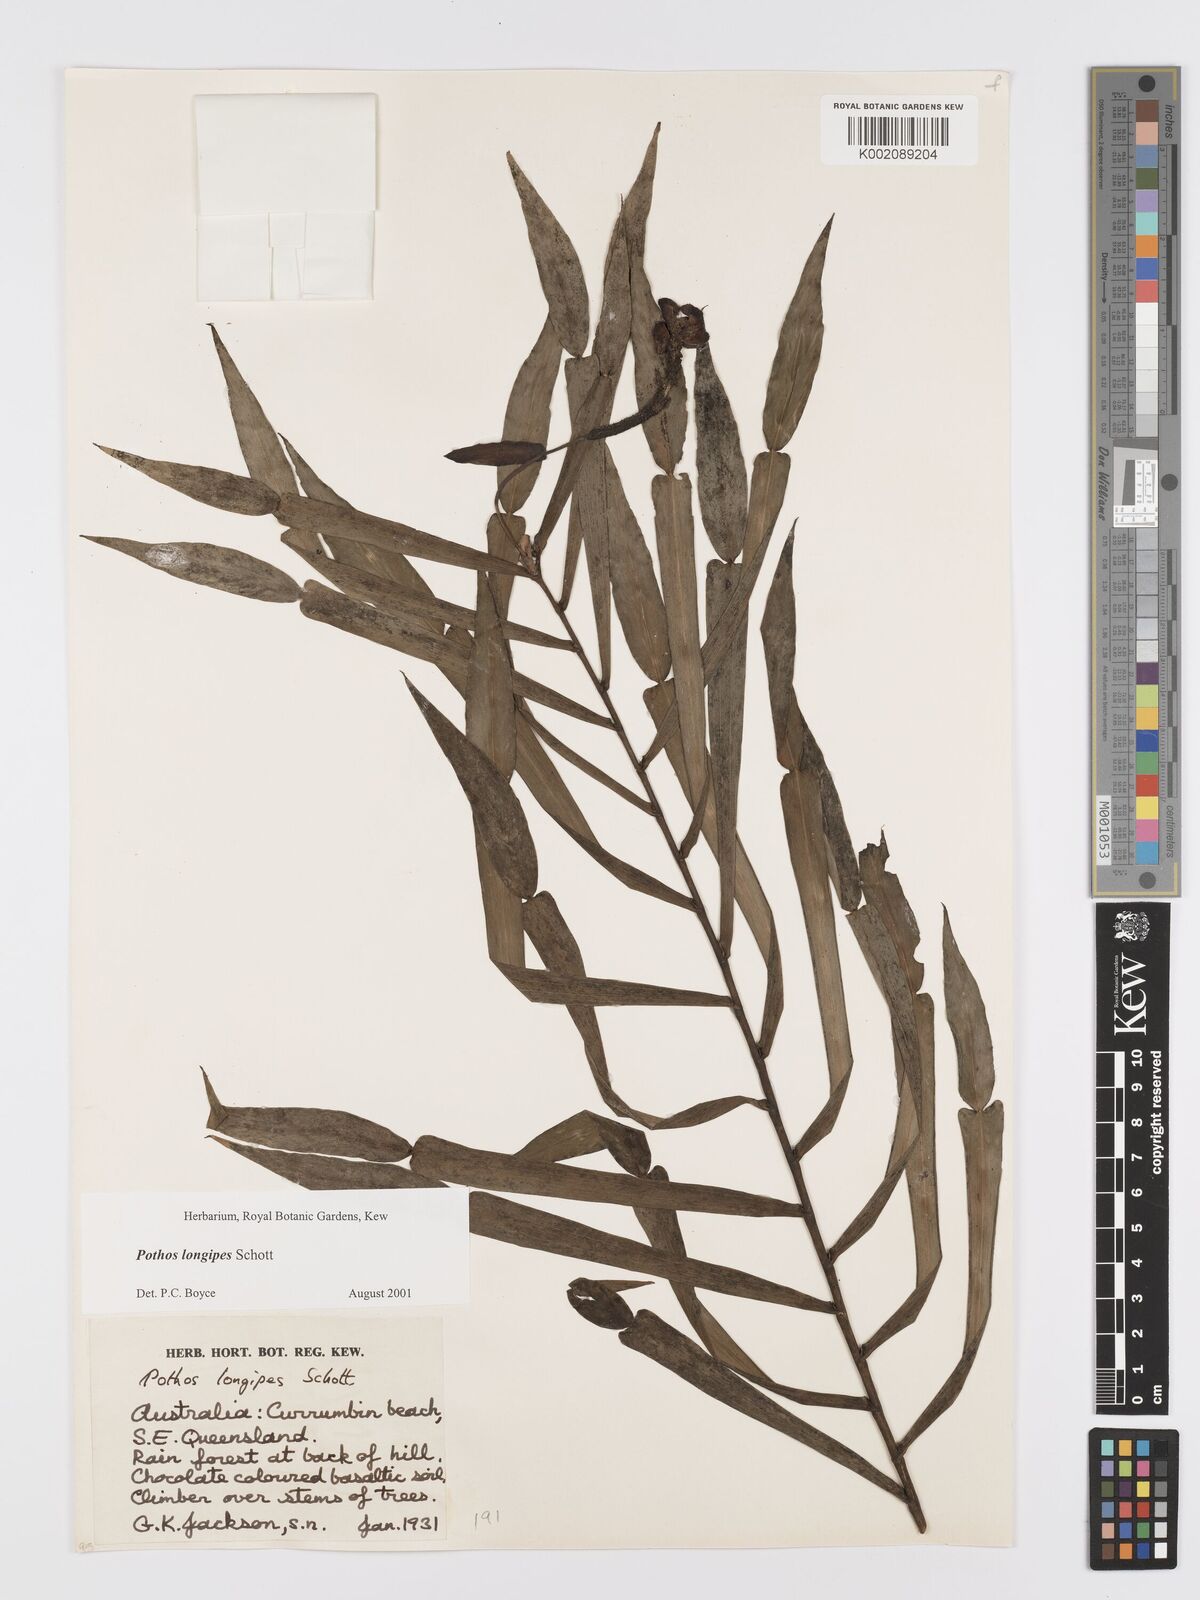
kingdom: Plantae
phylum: Tracheophyta
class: Liliopsida
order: Alismatales
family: Araceae
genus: Pothos
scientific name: Pothos longipes
